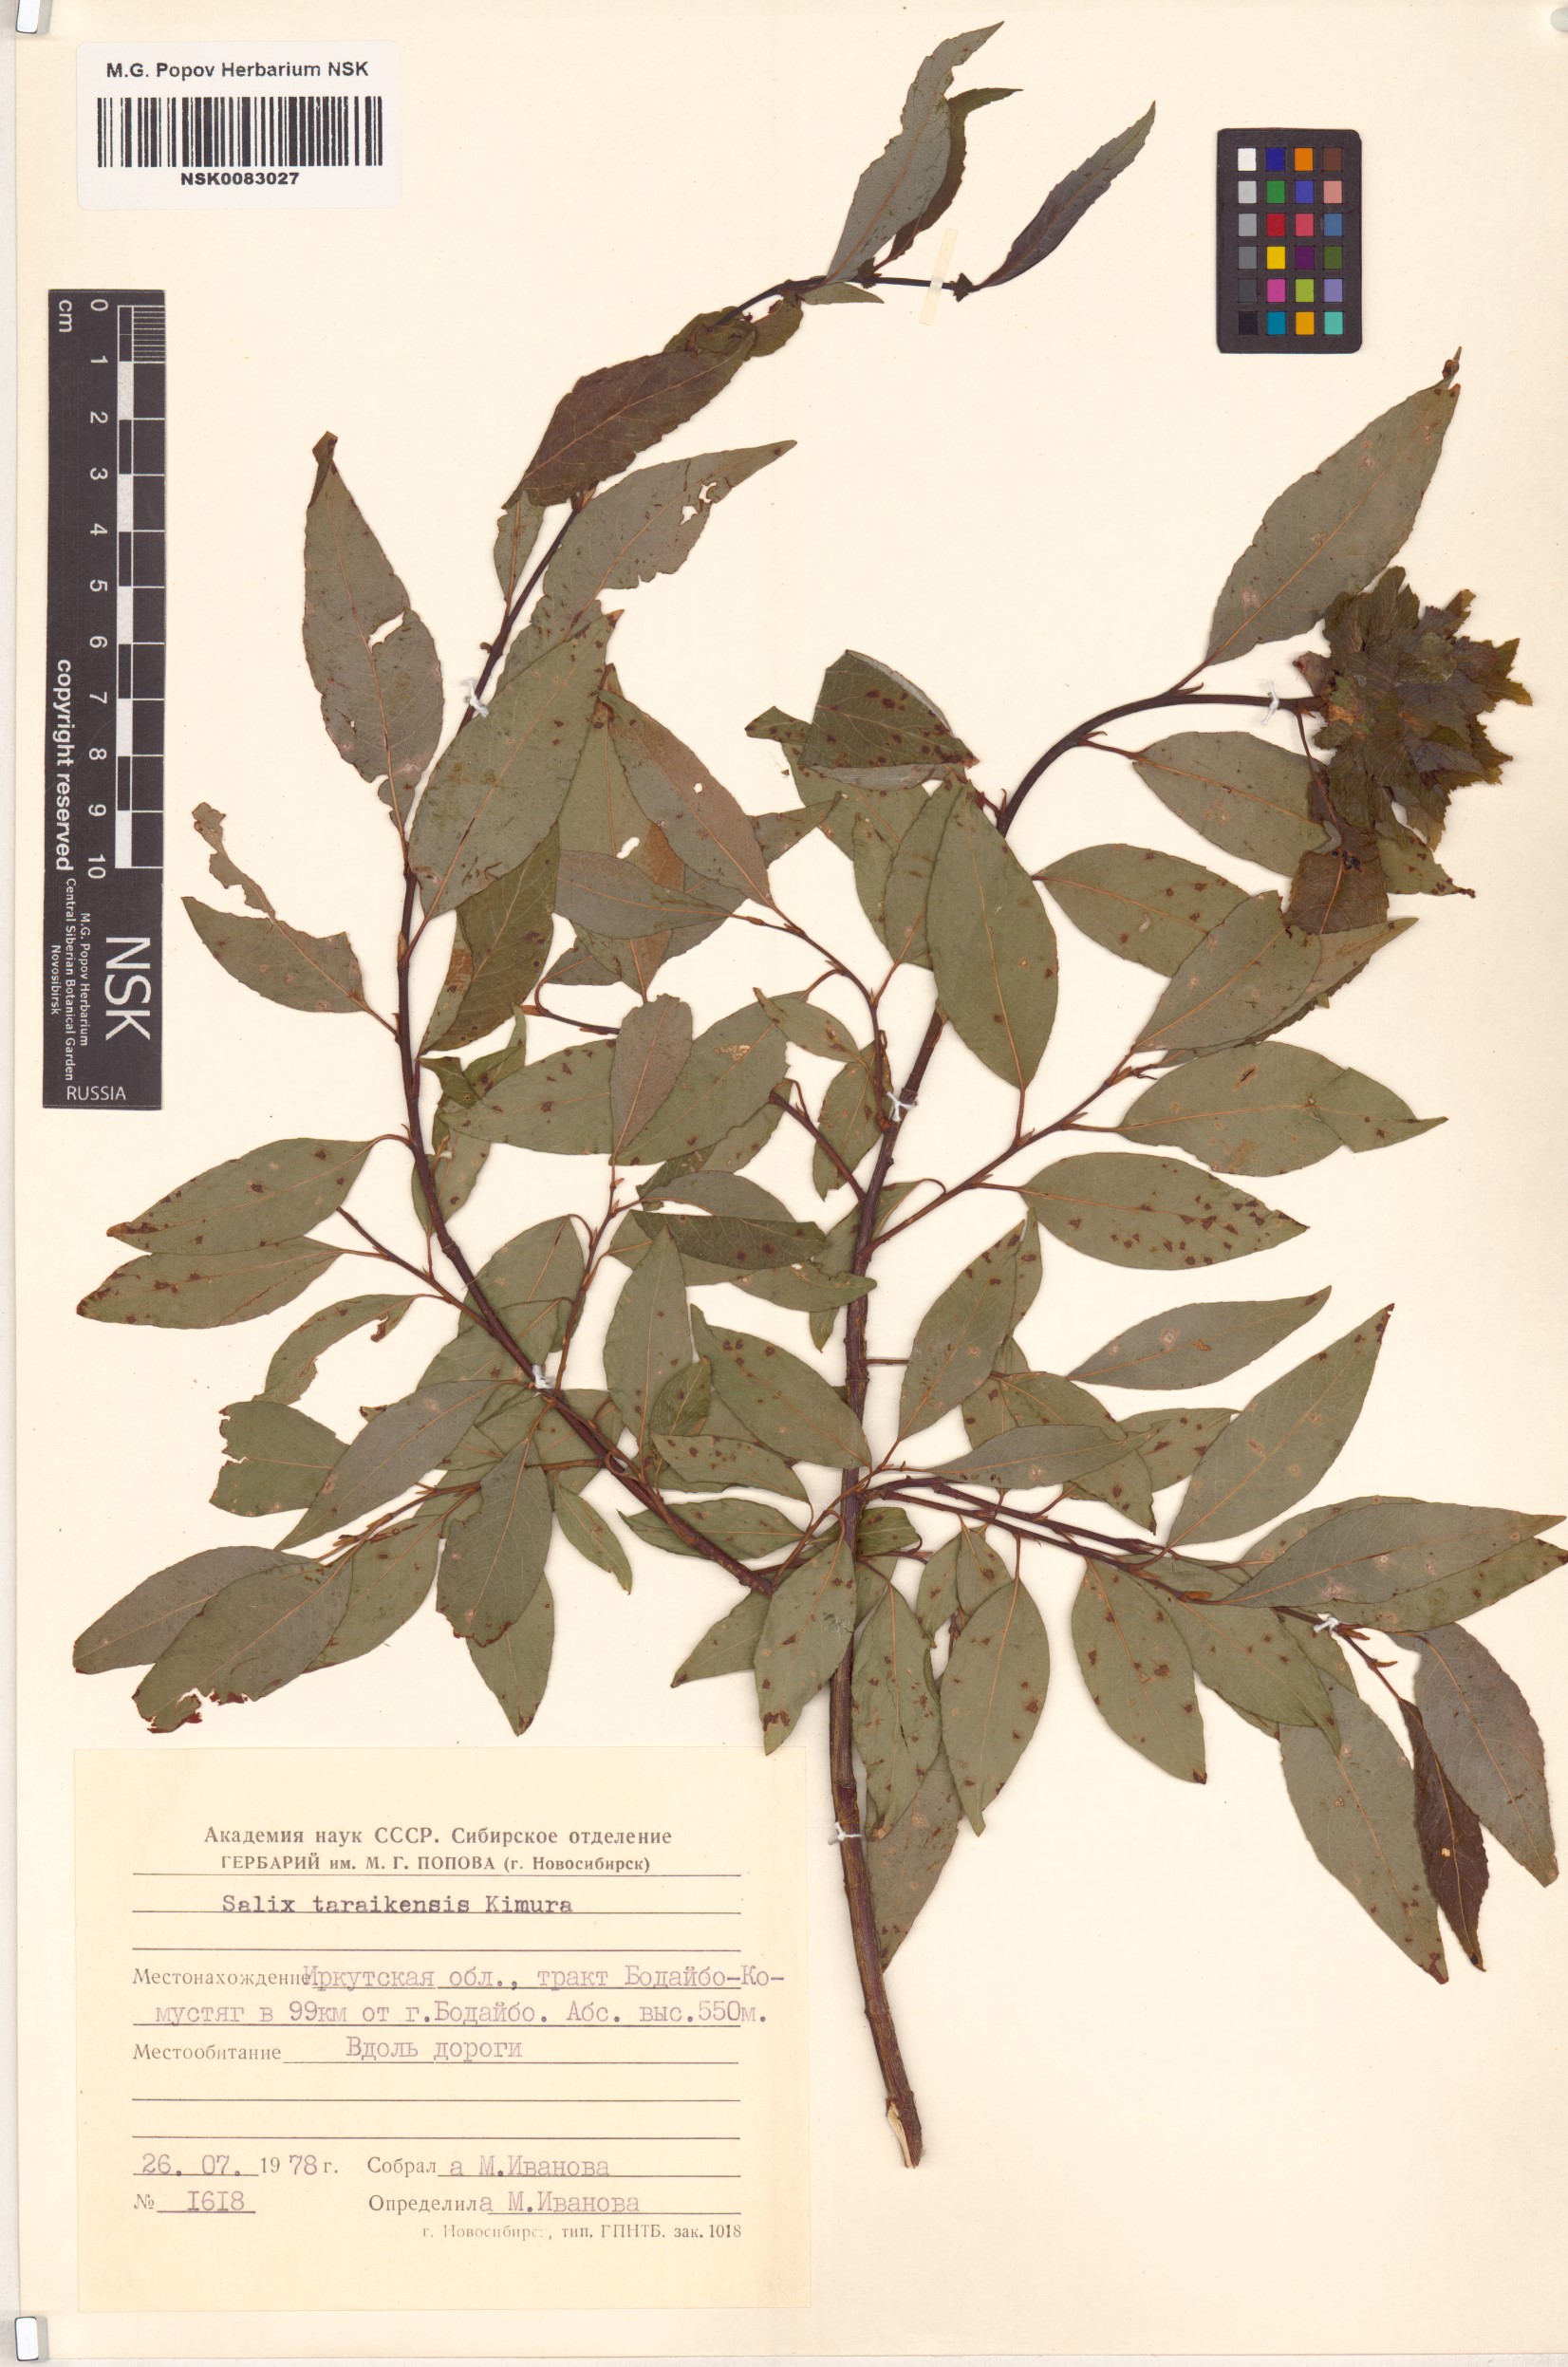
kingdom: Plantae
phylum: Tracheophyta
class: Magnoliopsida
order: Malpighiales
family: Salicaceae
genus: Salix
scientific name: Salix taraikensis
